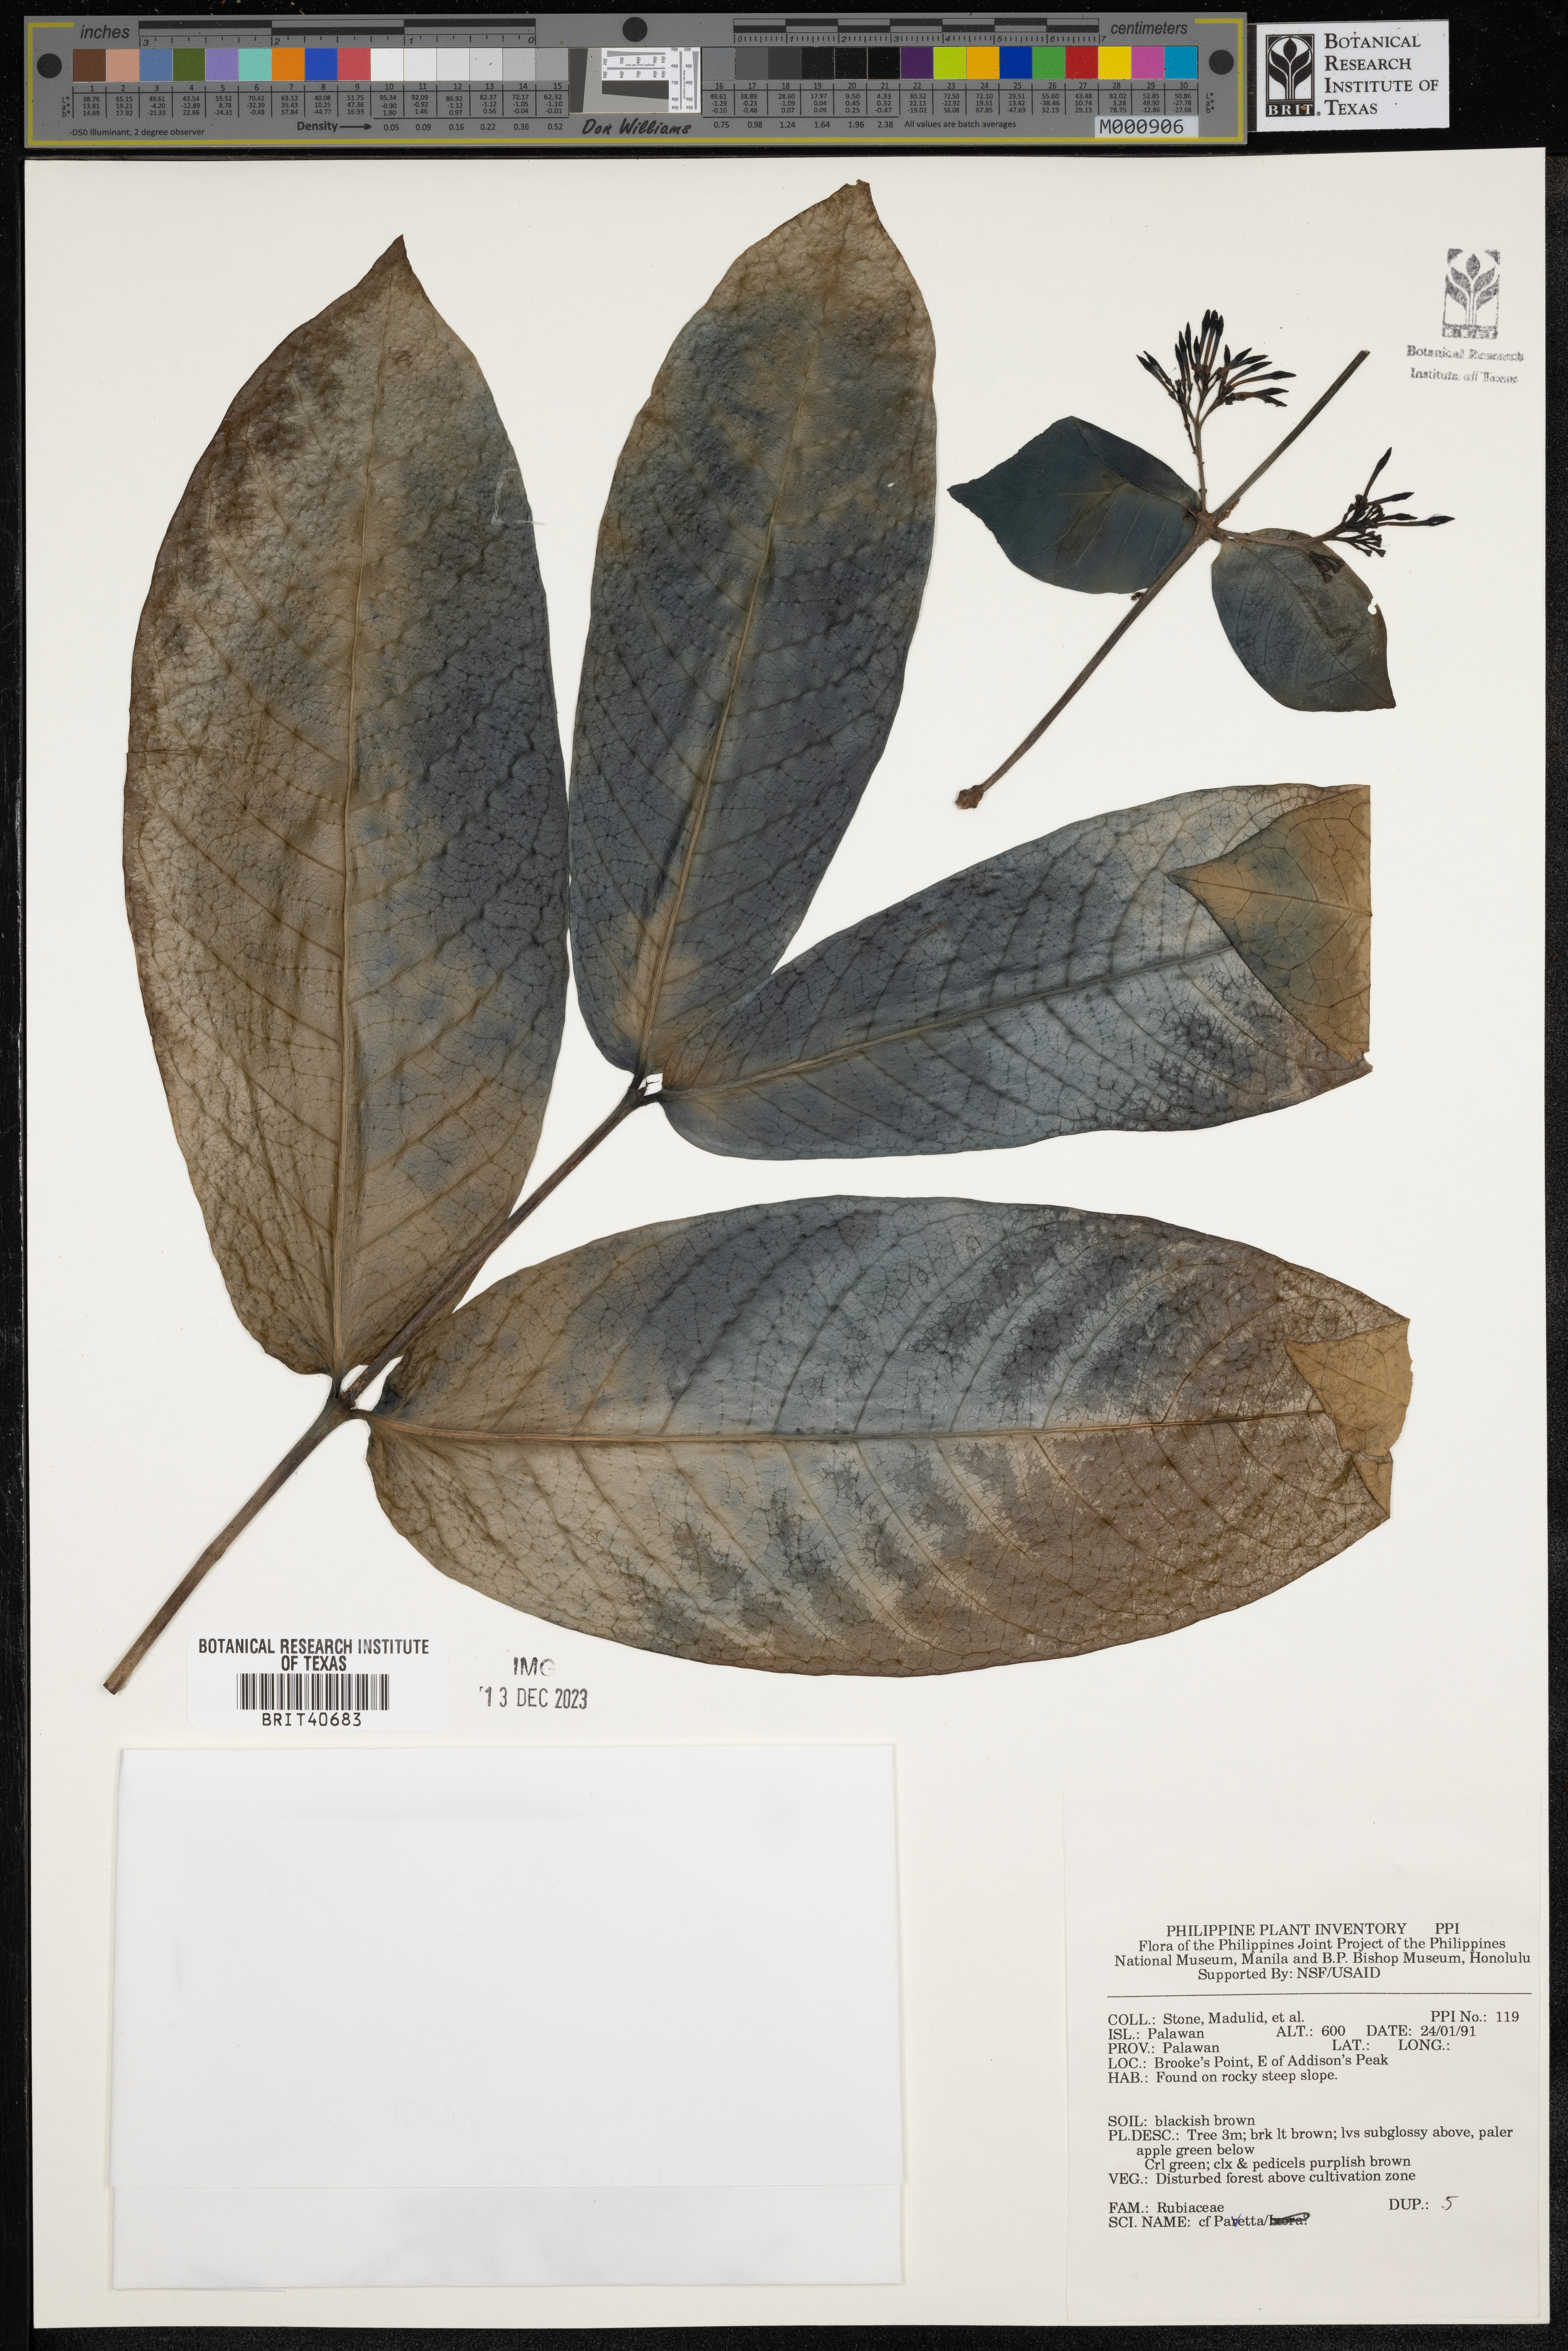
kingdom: Plantae
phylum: Tracheophyta
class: Magnoliopsida
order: Gentianales
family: Rubiaceae
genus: Pavetta
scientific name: Pavetta
